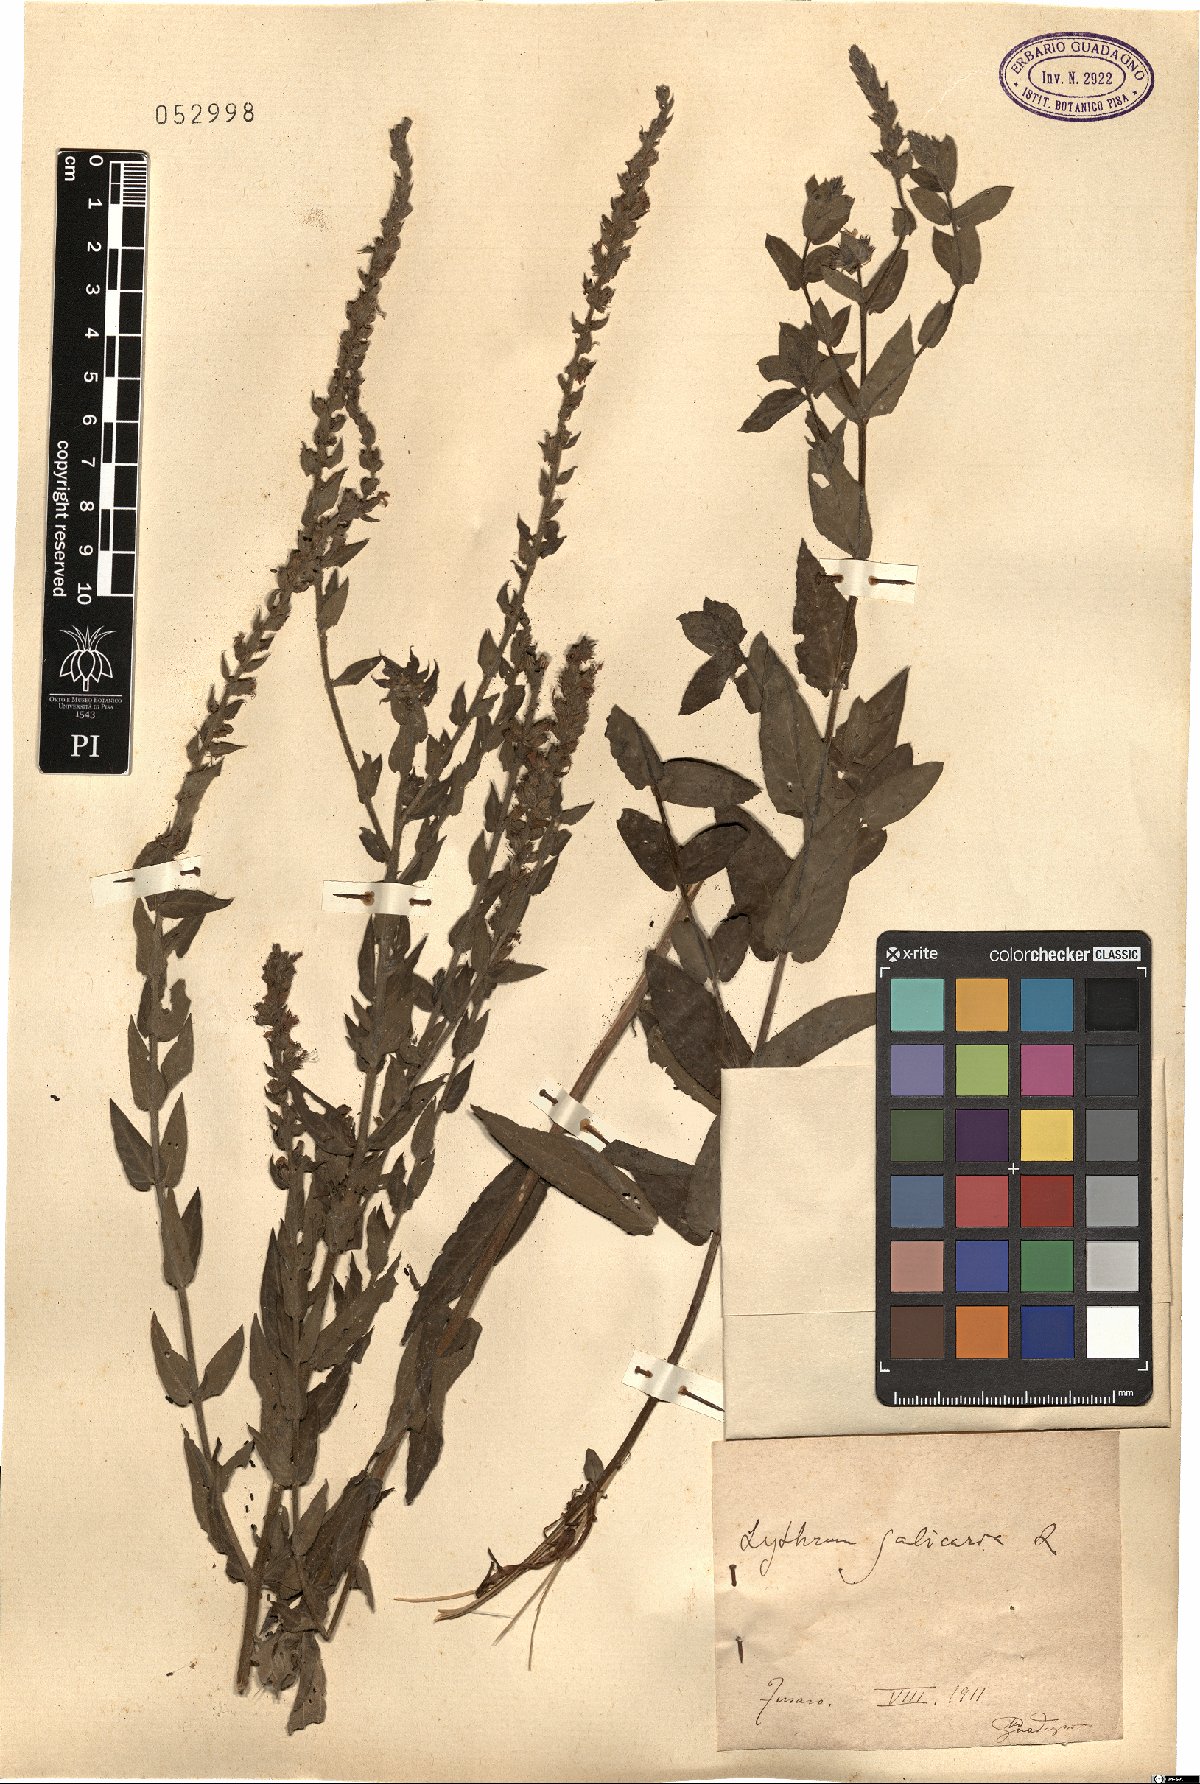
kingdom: Plantae
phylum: Tracheophyta
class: Magnoliopsida
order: Myrtales
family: Lythraceae
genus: Lythrum
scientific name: Lythrum salicaria
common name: Purple loosestrife
